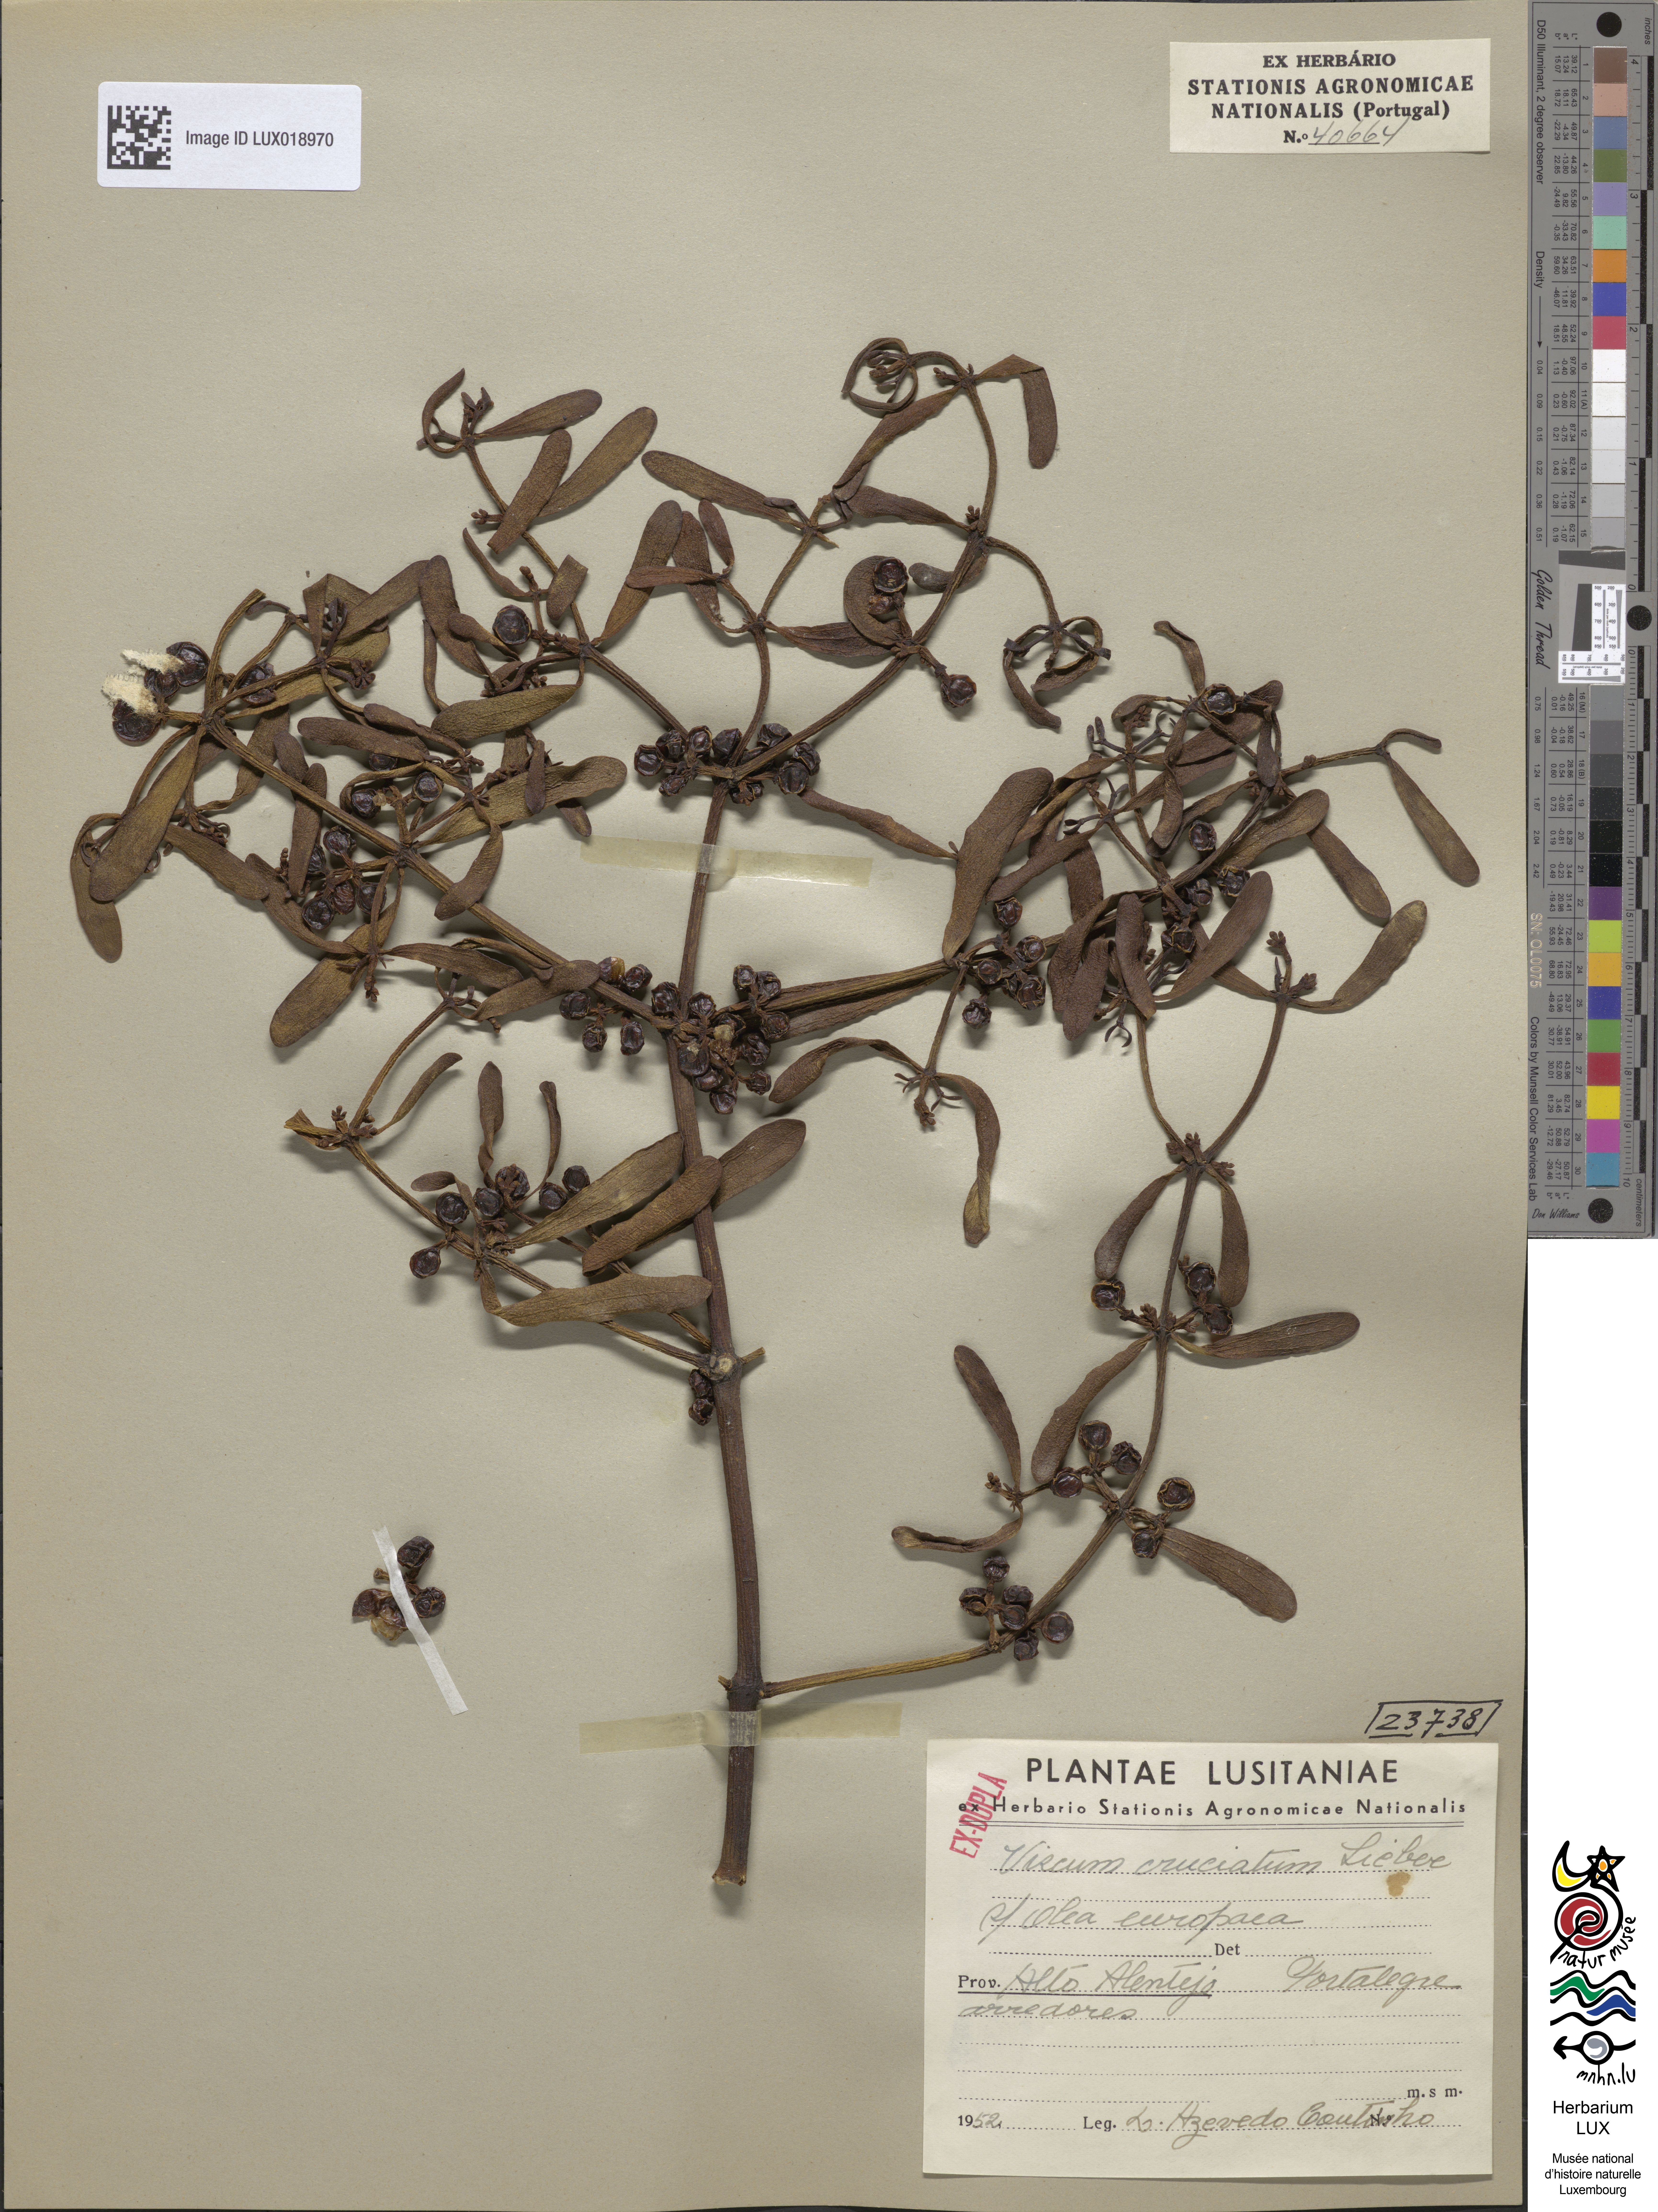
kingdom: Plantae
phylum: Tracheophyta
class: Magnoliopsida
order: Santalales
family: Viscaceae
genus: Viscum
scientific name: Viscum cruciatum
